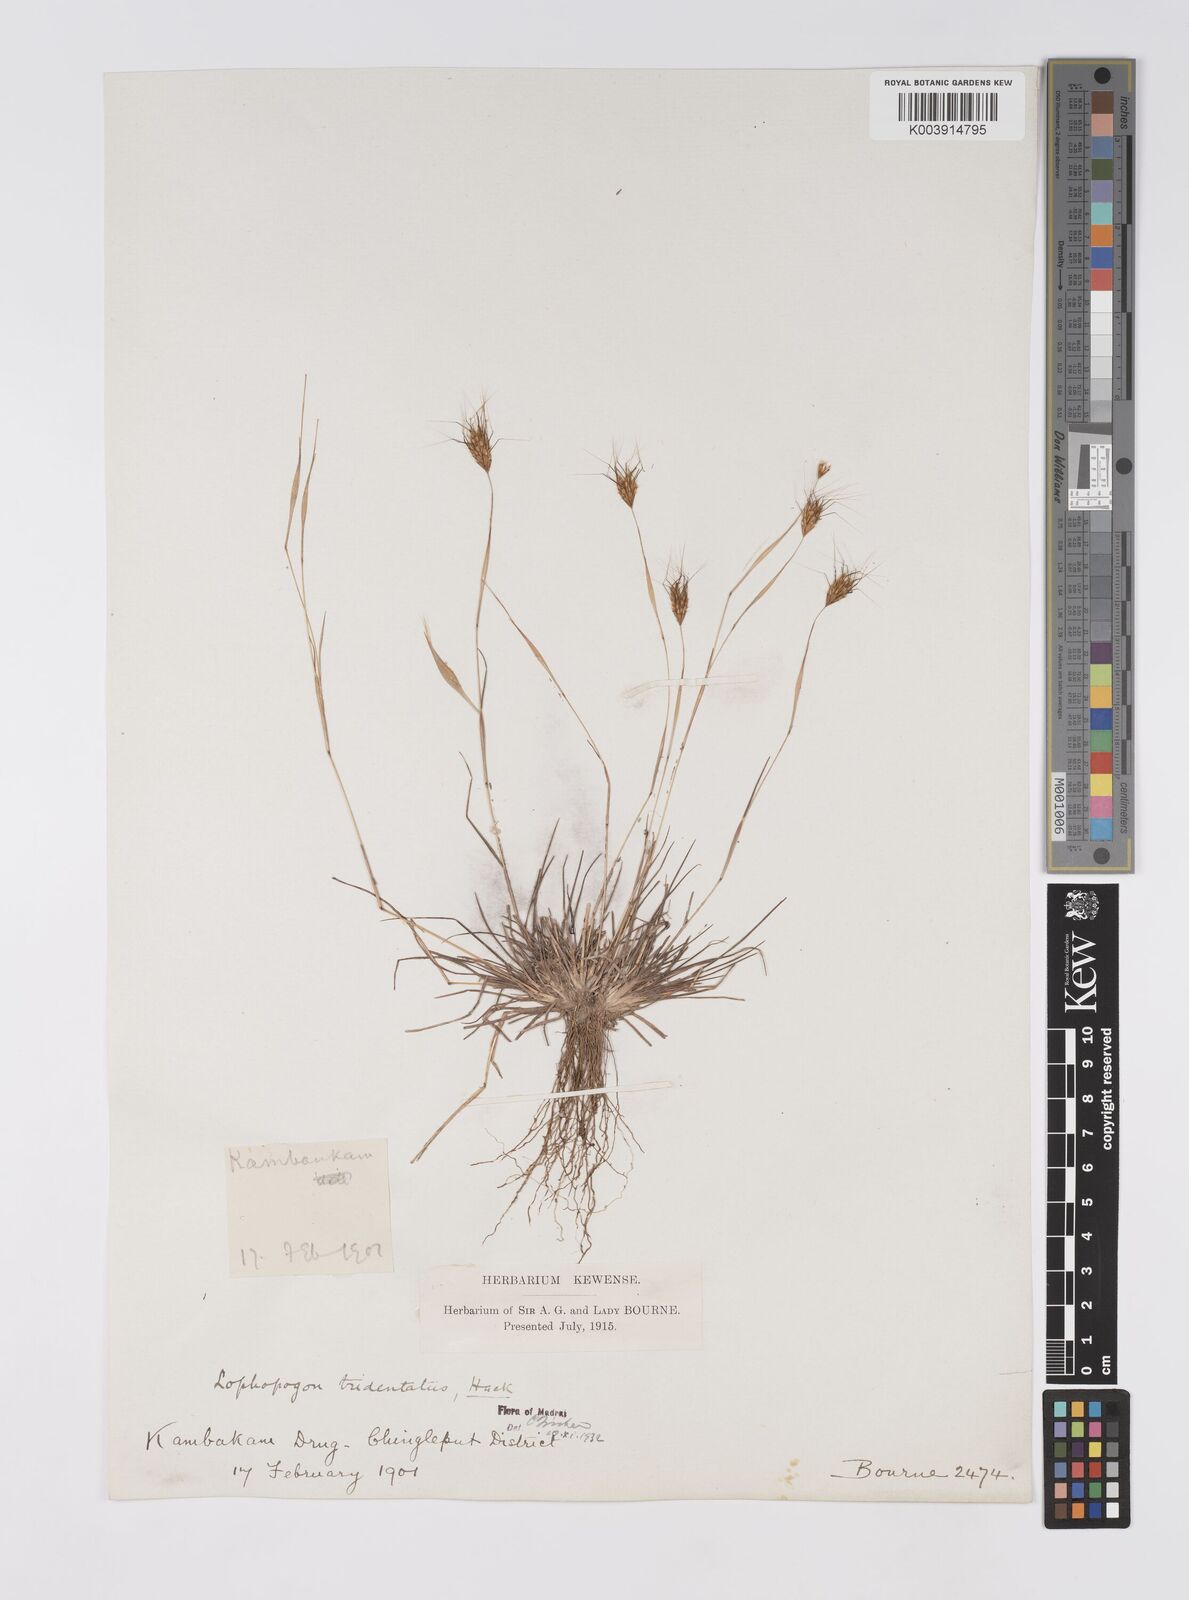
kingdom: Plantae
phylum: Tracheophyta
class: Liliopsida
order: Poales
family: Poaceae
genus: Lophopogon
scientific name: Lophopogon tridentatus
